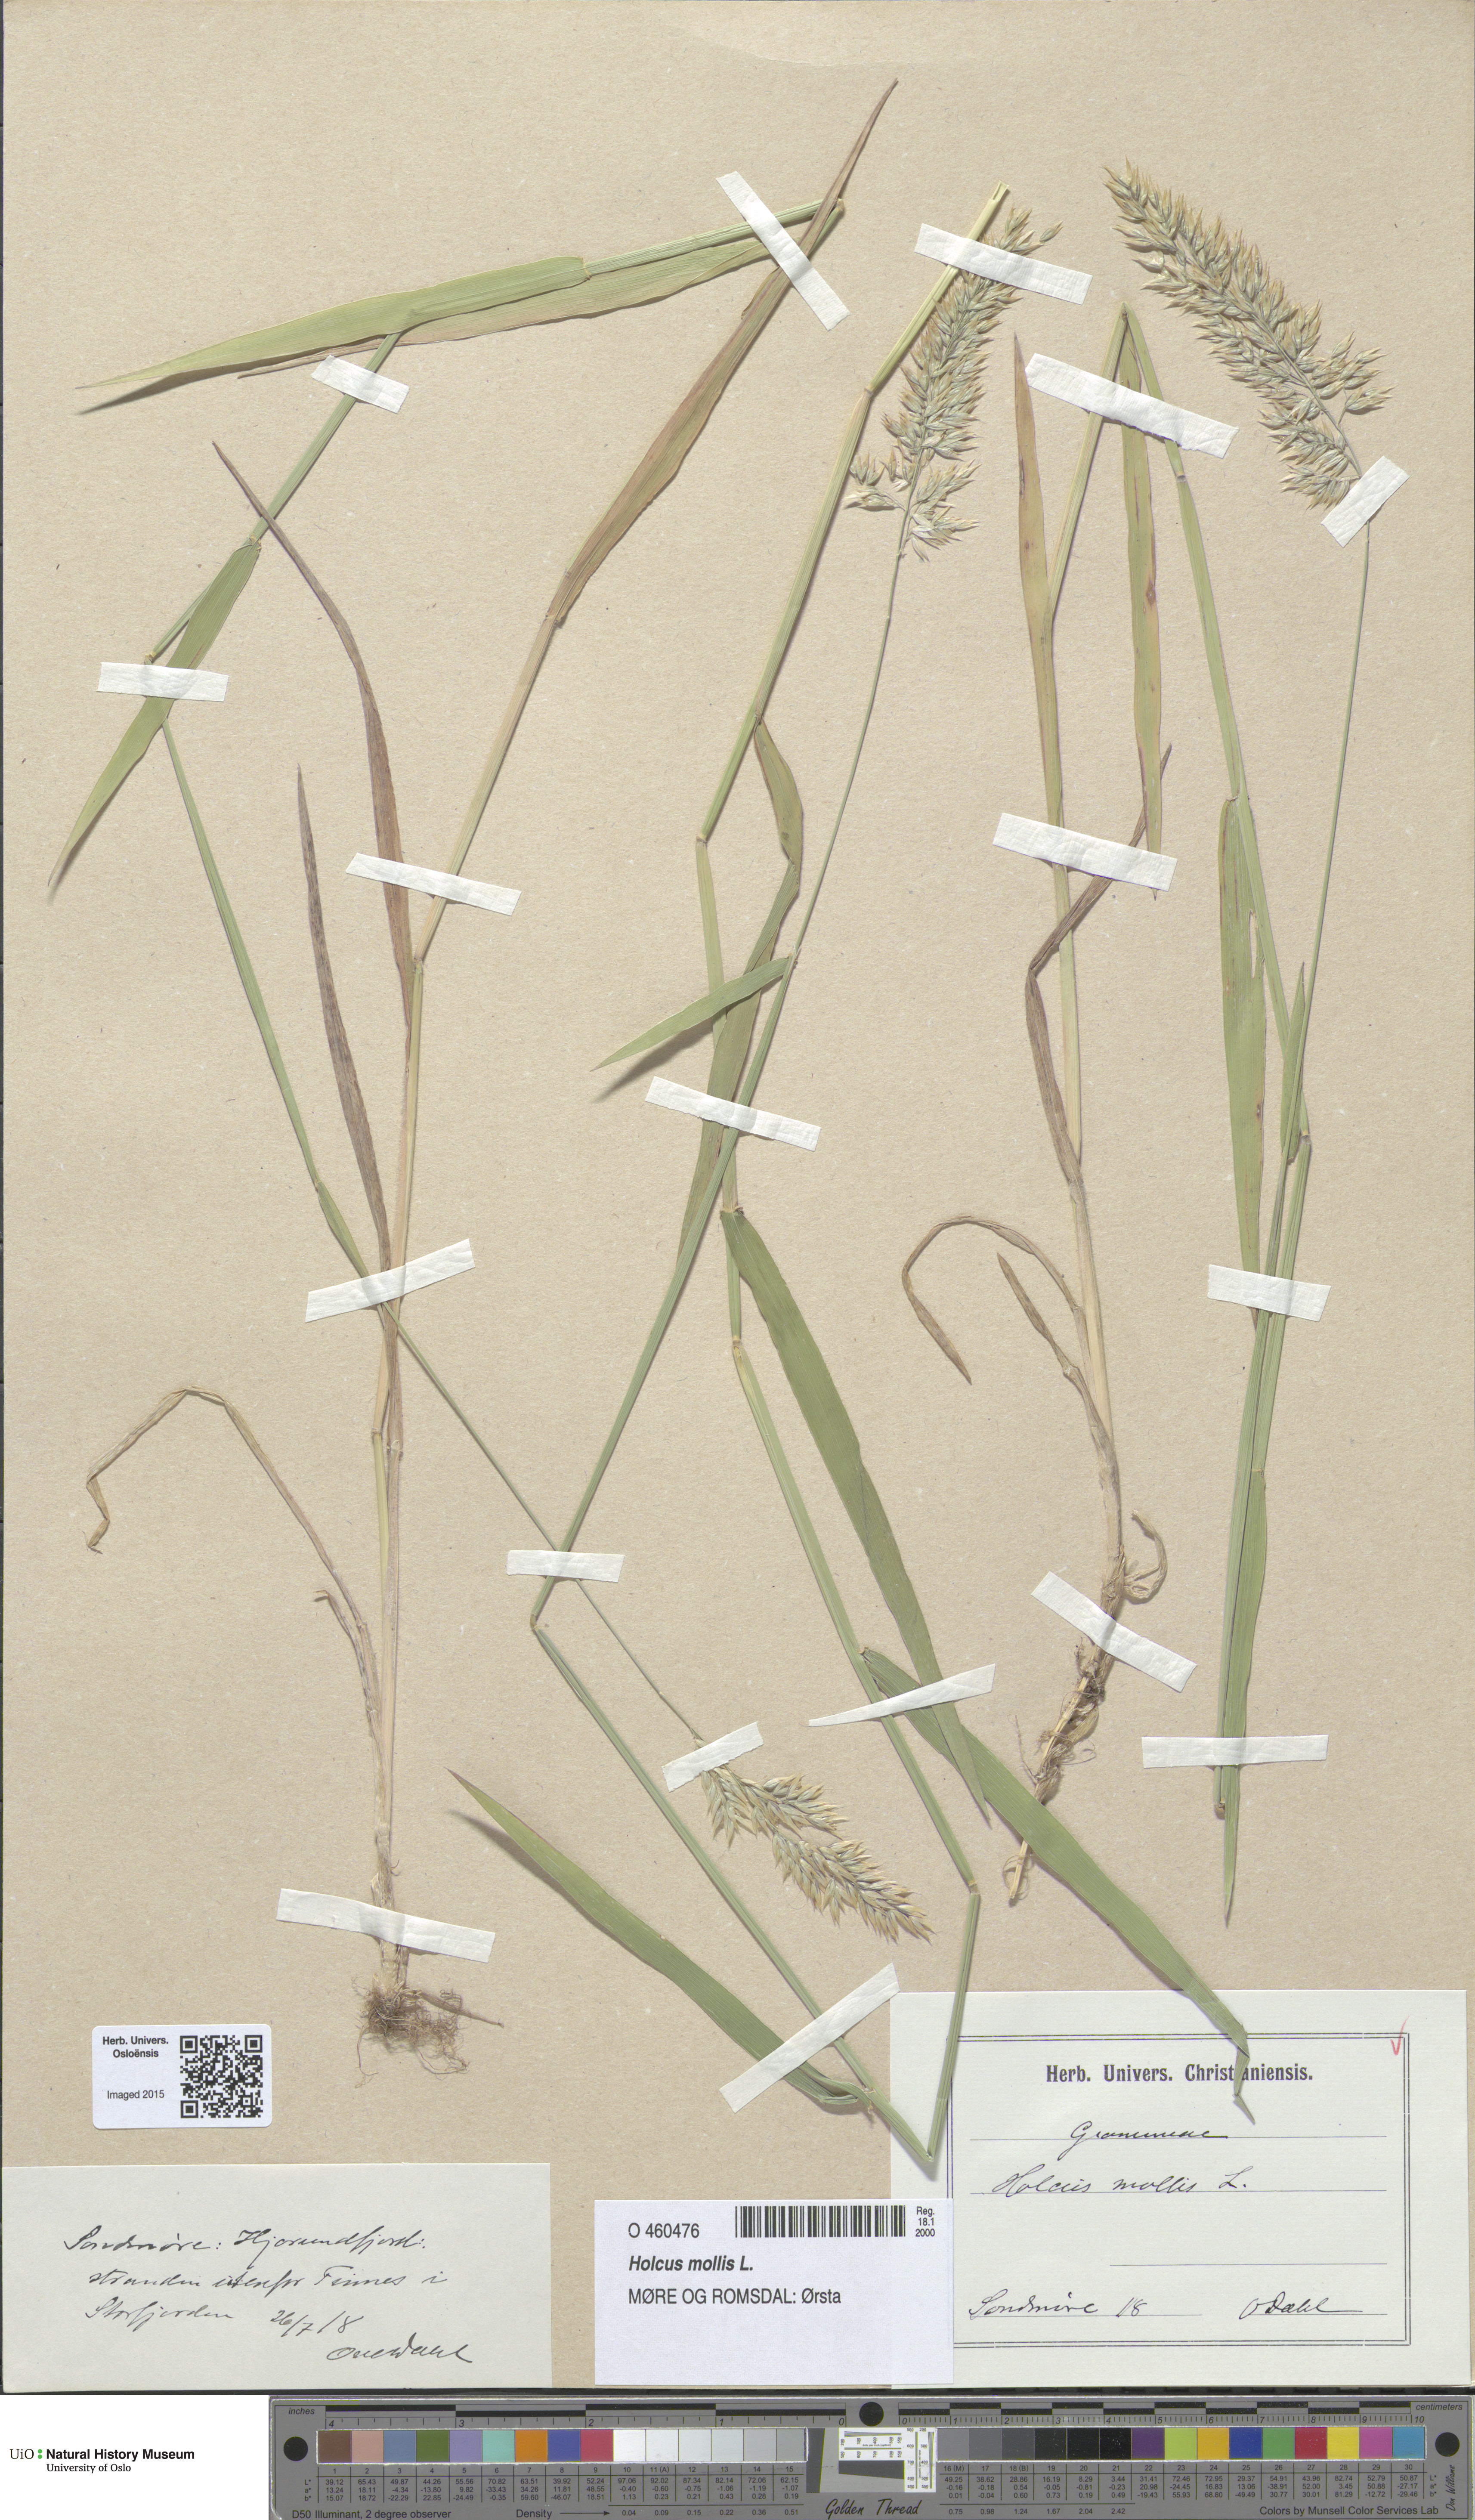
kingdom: Plantae
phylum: Tracheophyta
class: Liliopsida
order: Poales
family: Poaceae
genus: Holcus
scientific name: Holcus mollis
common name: Creeping velvetgrass
